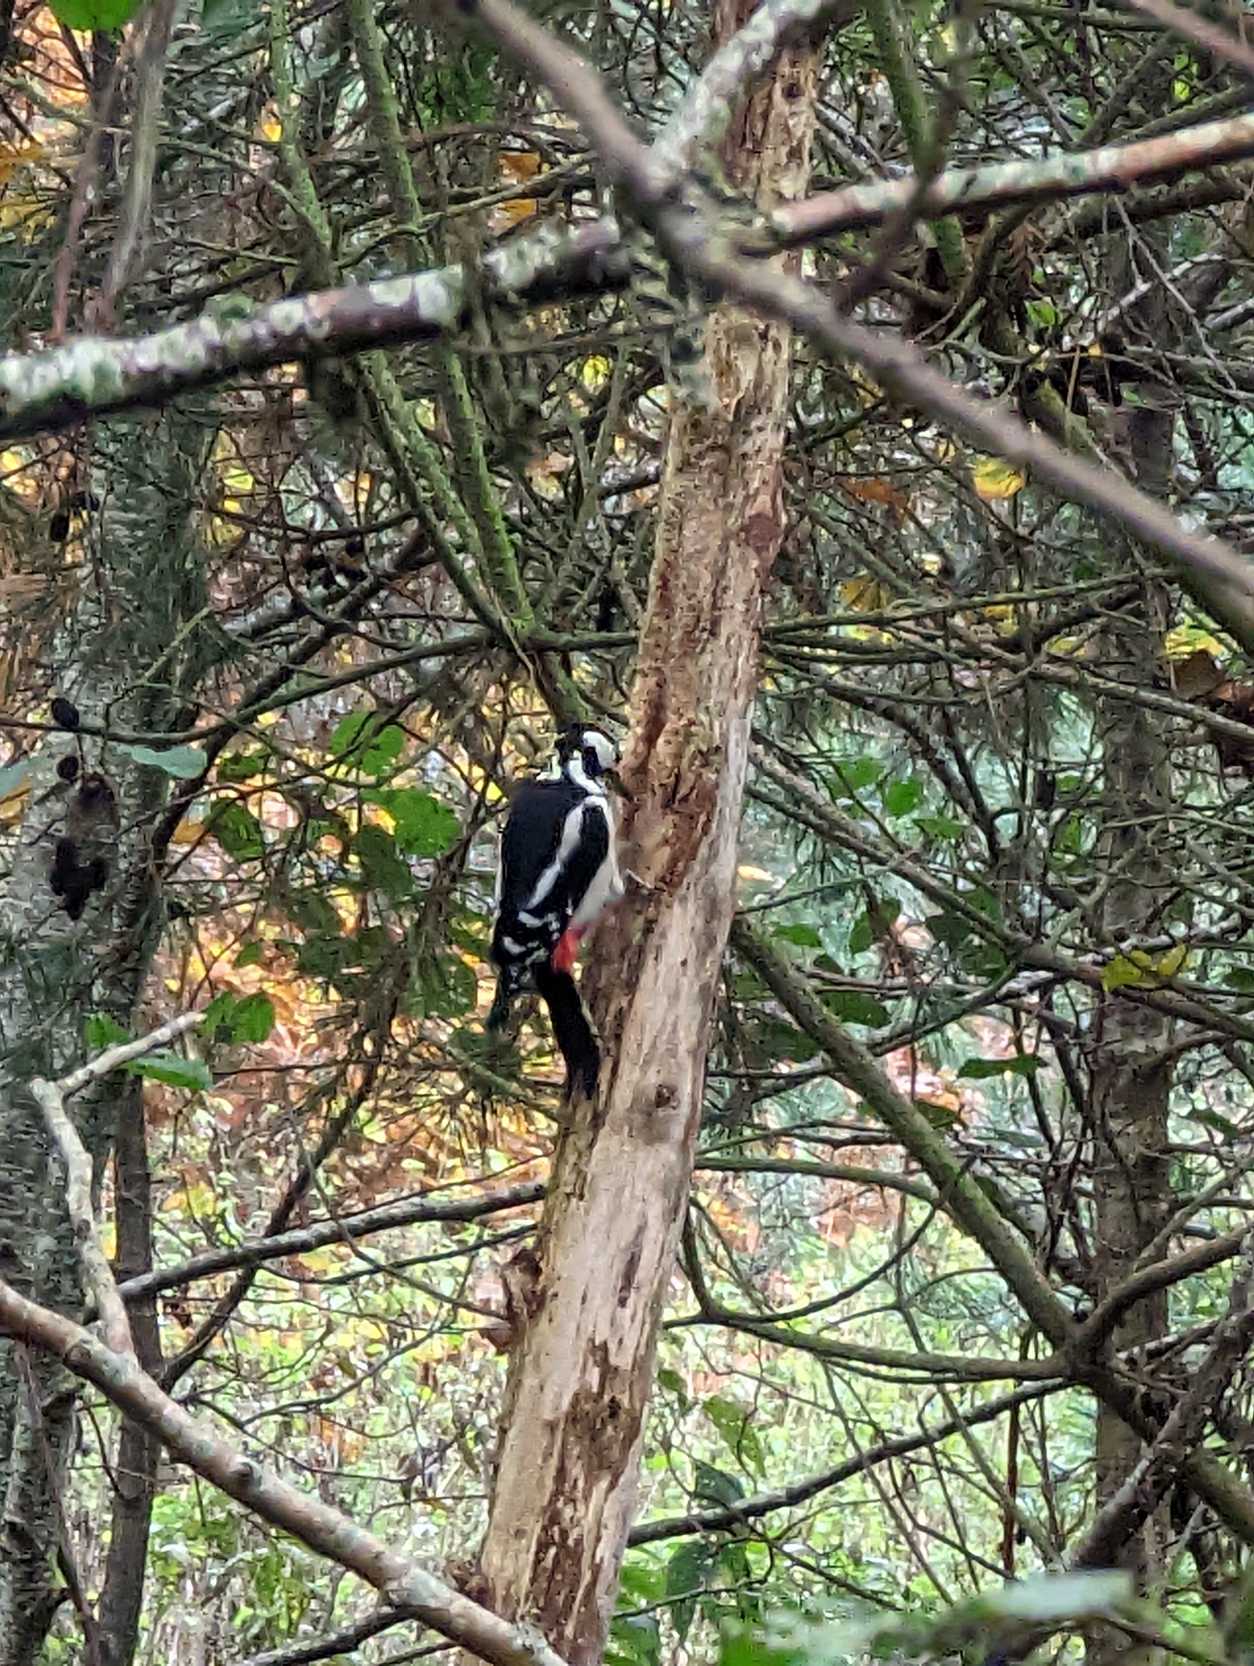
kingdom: Animalia
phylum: Chordata
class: Aves
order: Piciformes
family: Picidae
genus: Dendrocopos
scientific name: Dendrocopos major
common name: Stor flagspætte
